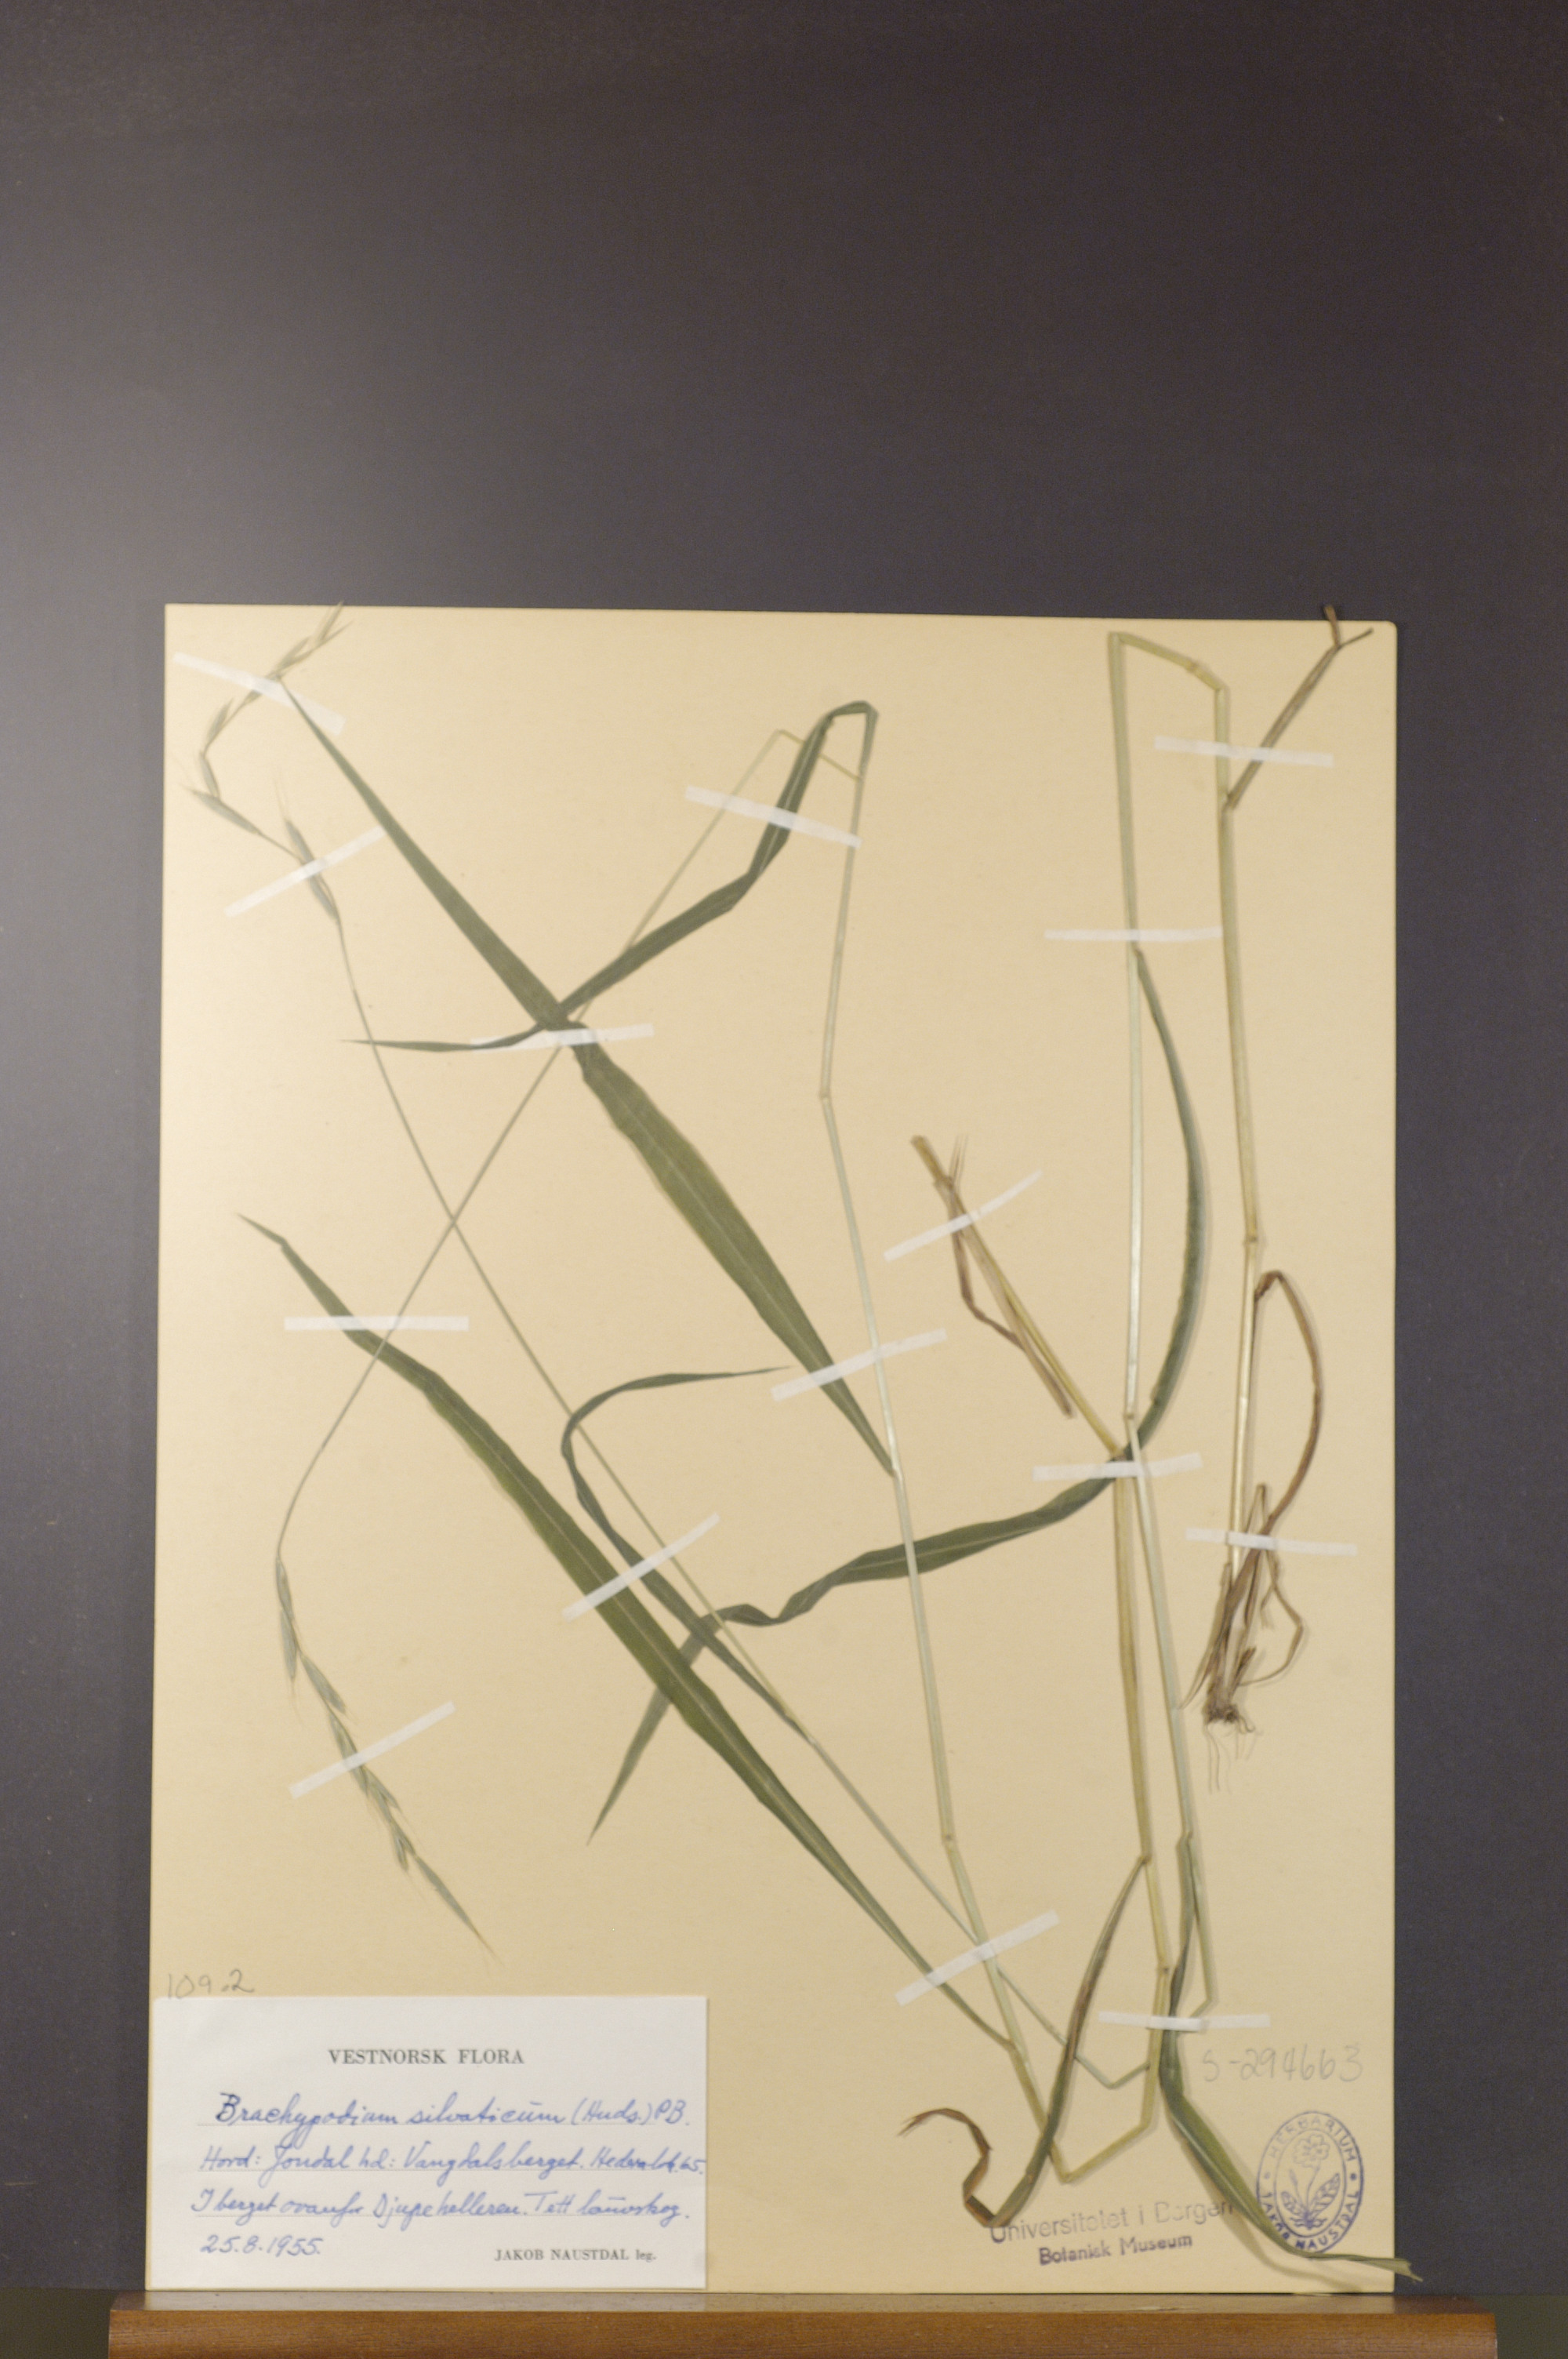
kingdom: Plantae
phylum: Tracheophyta
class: Liliopsida
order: Poales
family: Poaceae
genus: Brachypodium
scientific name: Brachypodium sylvaticum
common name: False-brome
